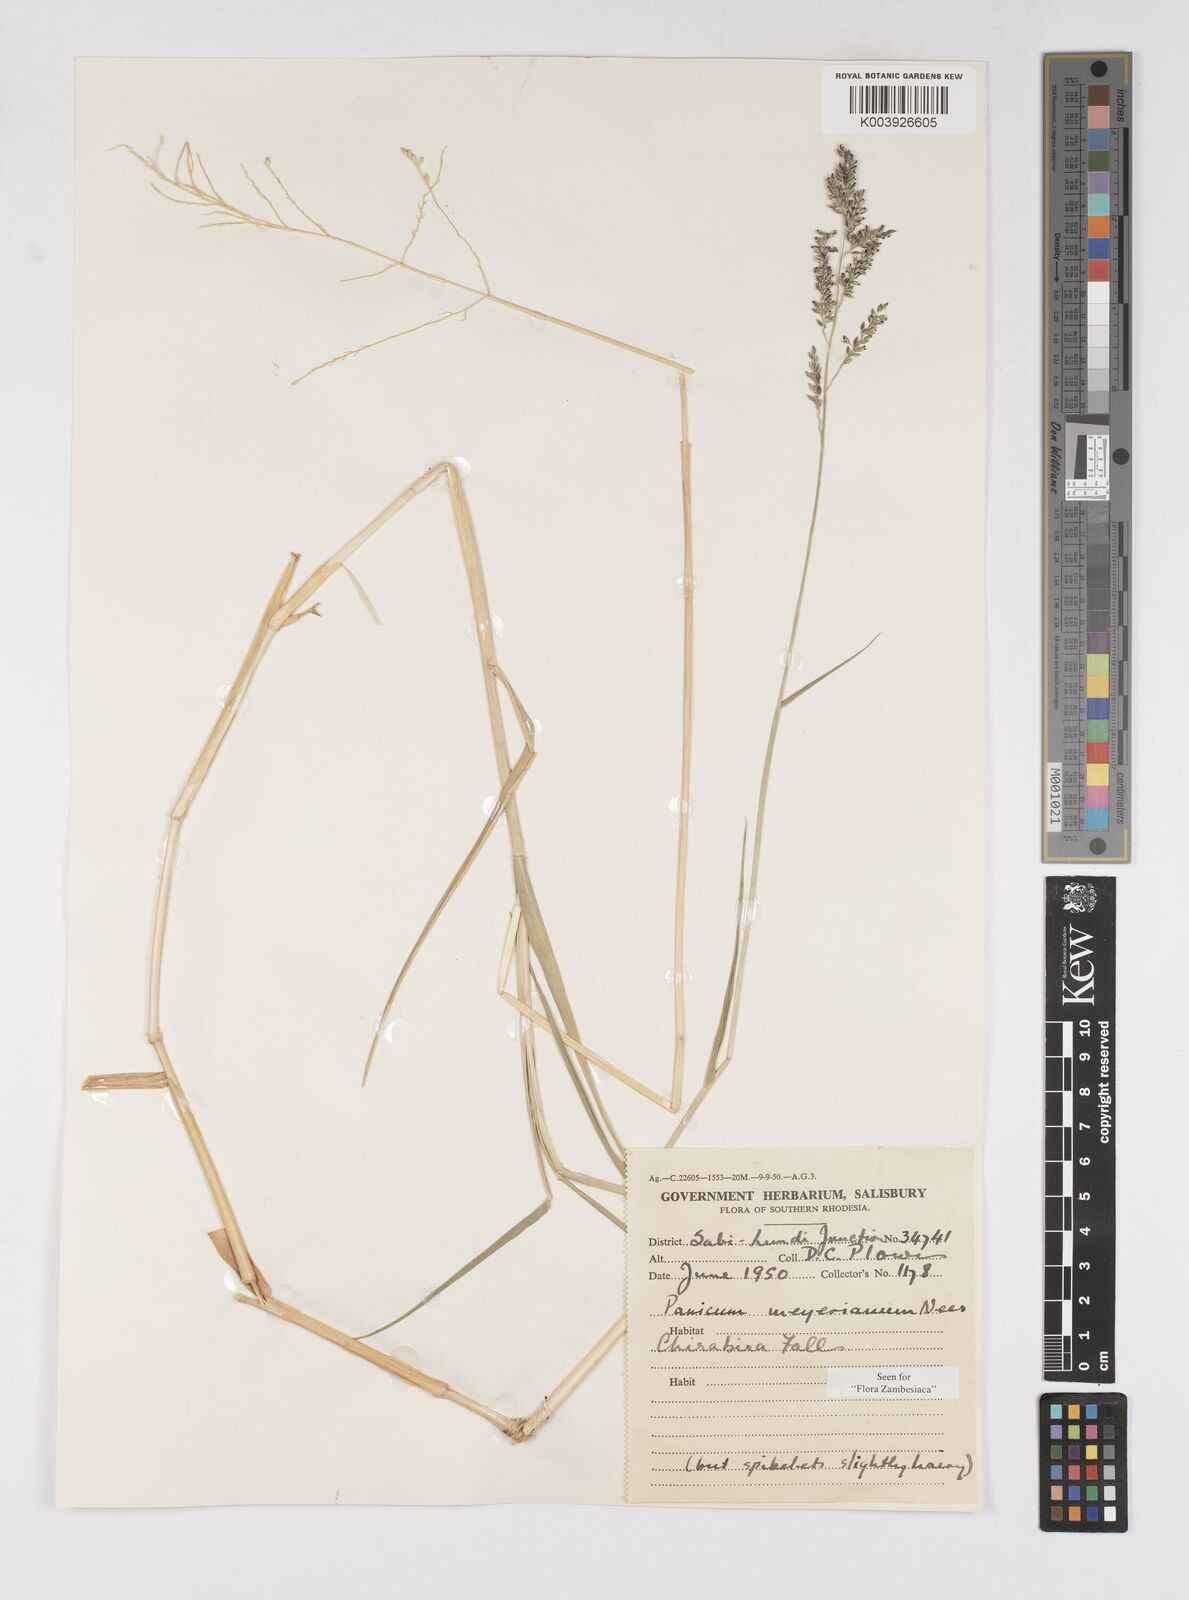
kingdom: Plantae
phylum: Tracheophyta
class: Liliopsida
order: Poales
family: Poaceae
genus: Eriochloa
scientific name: Eriochloa meyeriana
